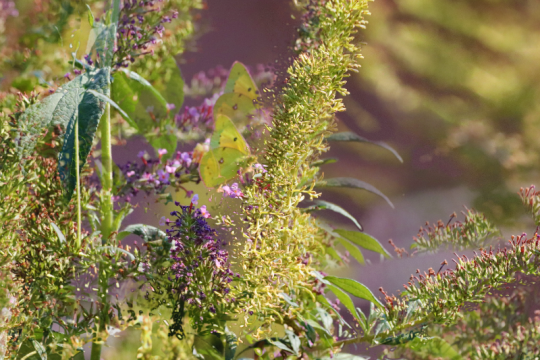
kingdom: Animalia
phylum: Arthropoda
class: Insecta
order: Lepidoptera
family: Pieridae
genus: Colias
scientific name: Colias eurytheme
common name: Orange Sulphur
